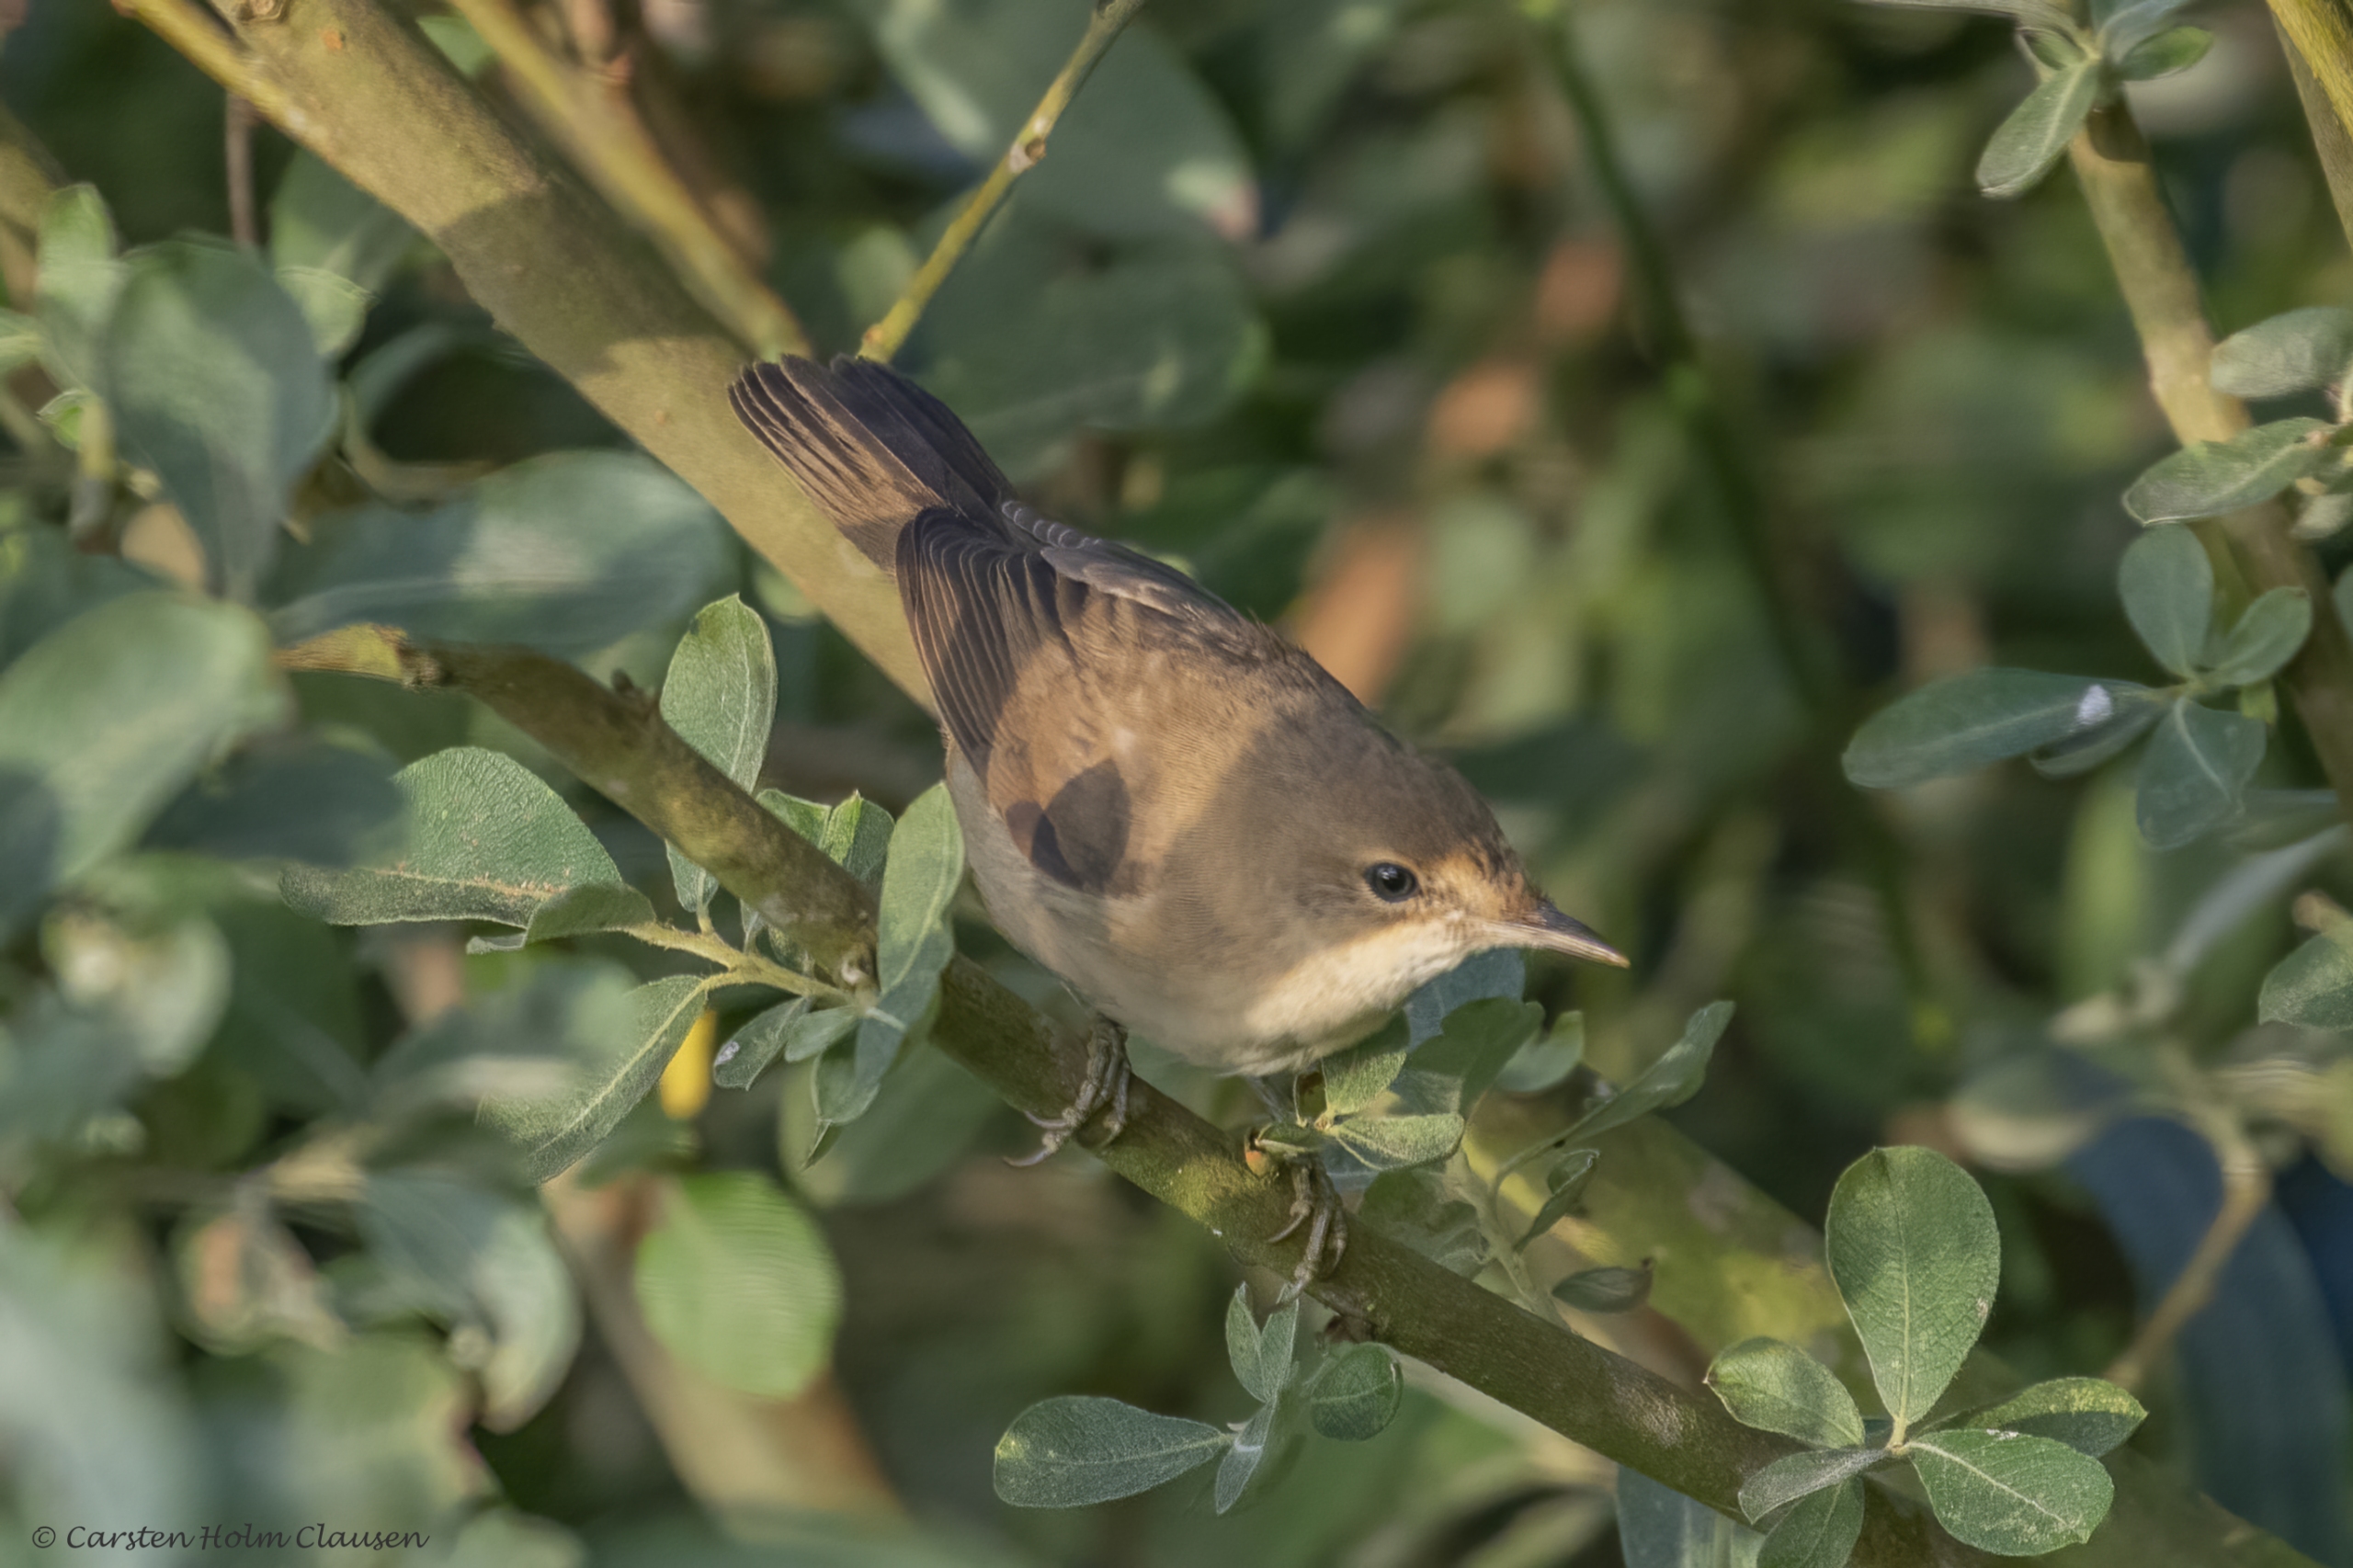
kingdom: Animalia
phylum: Chordata
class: Aves
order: Passeriformes
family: Acrocephalidae
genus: Acrocephalus
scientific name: Acrocephalus scirpaceus
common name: Rørsanger
